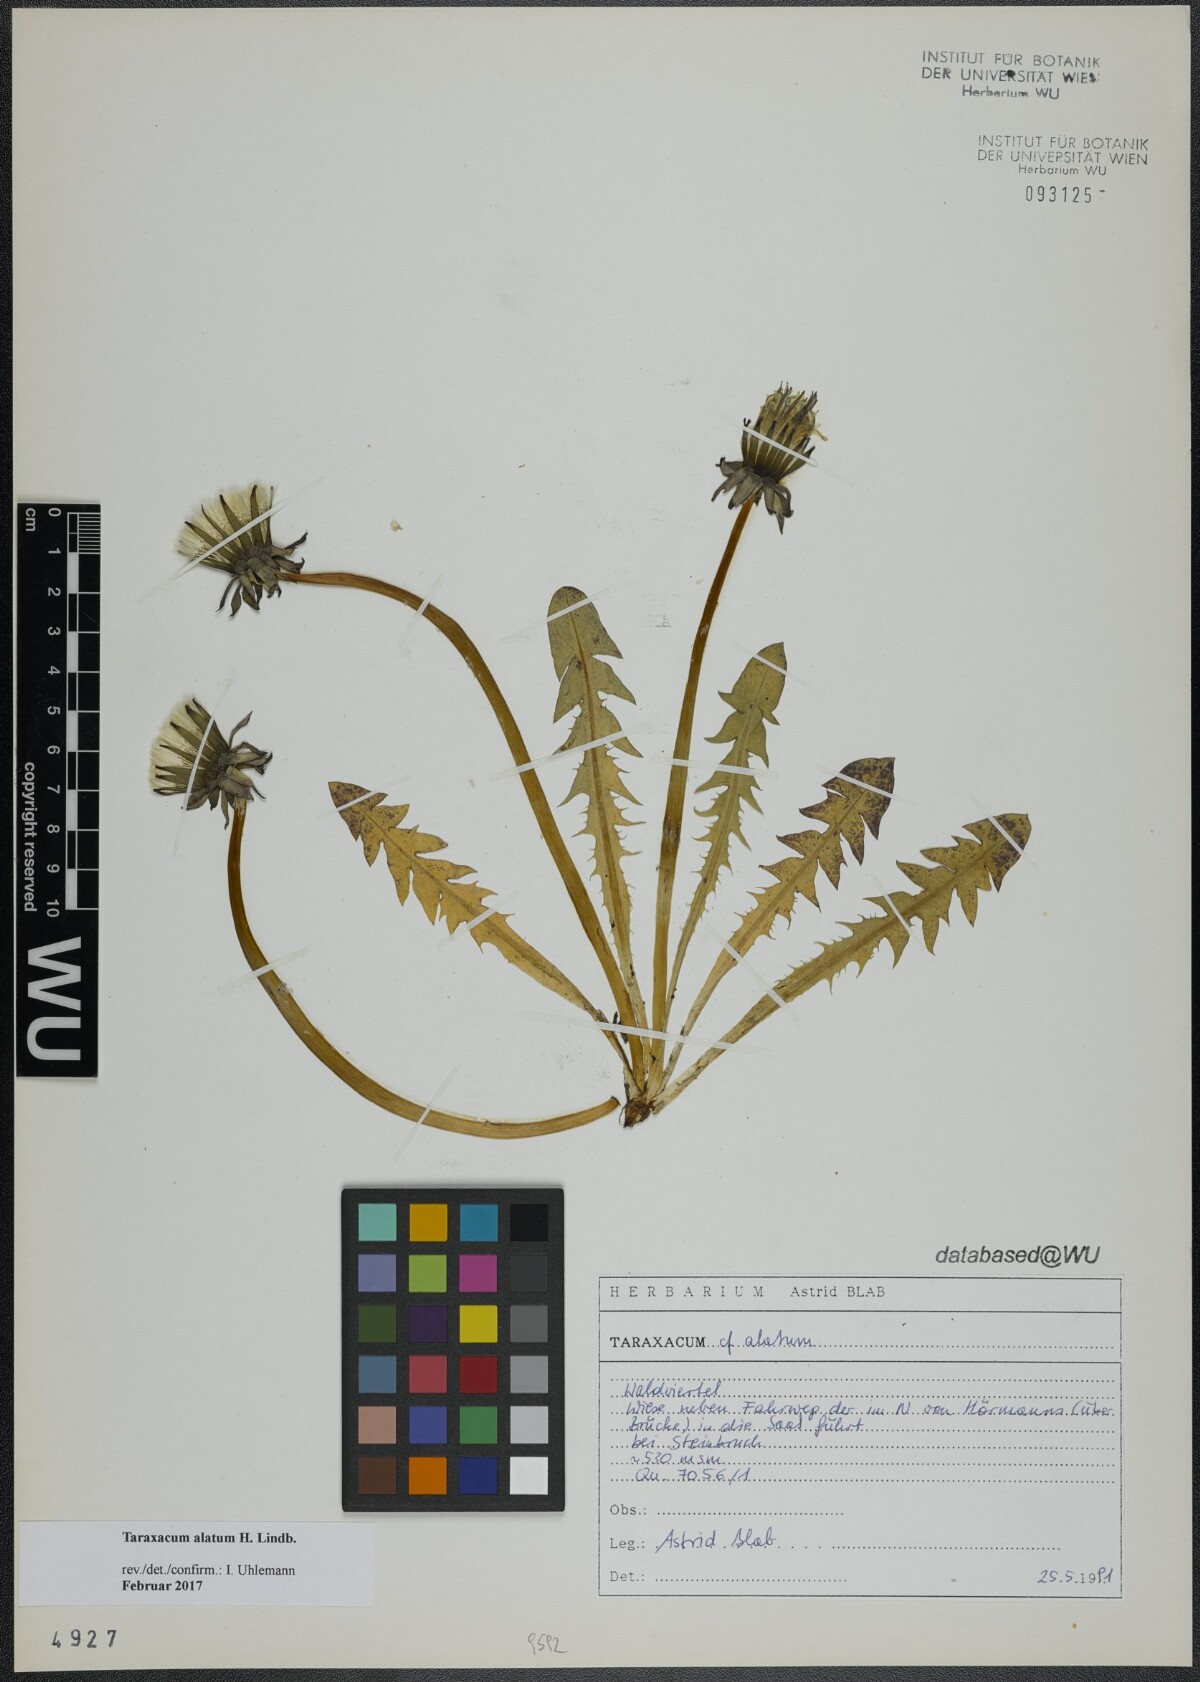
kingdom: Plantae
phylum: Tracheophyta
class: Magnoliopsida
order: Asterales
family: Asteraceae
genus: Taraxacum
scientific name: Taraxacum alatum
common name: Green dandelion
